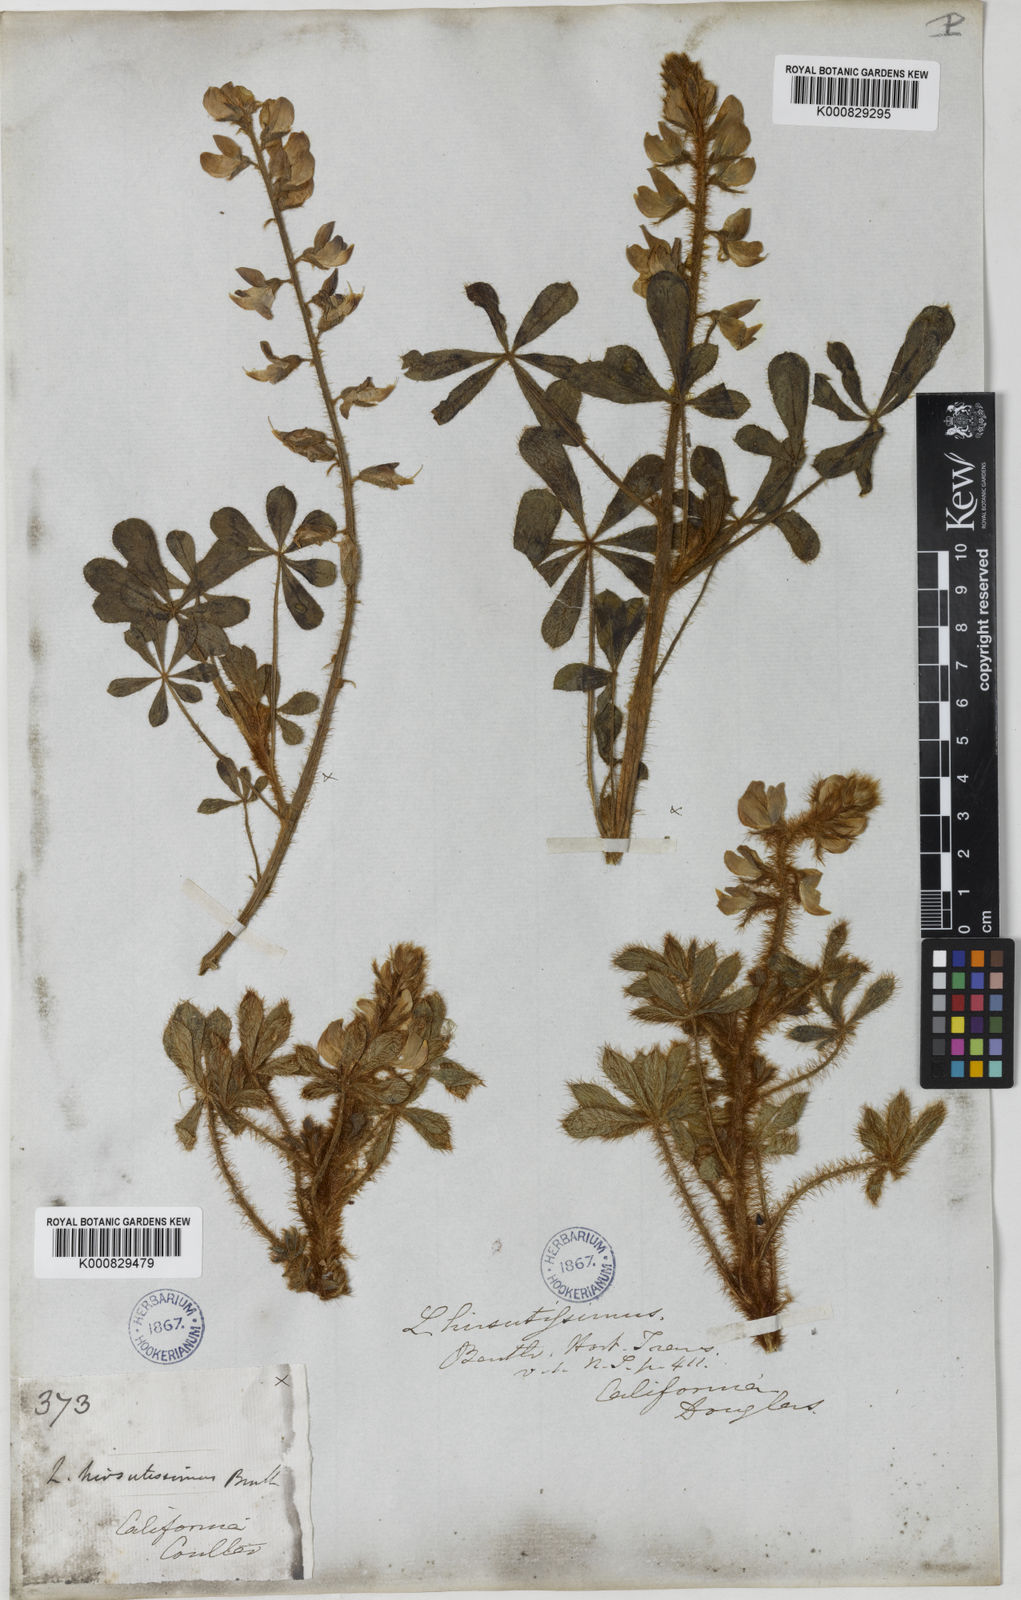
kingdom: Plantae
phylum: Tracheophyta
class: Magnoliopsida
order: Fabales
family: Fabaceae
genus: Lupinus
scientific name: Lupinus hirsutissimus
